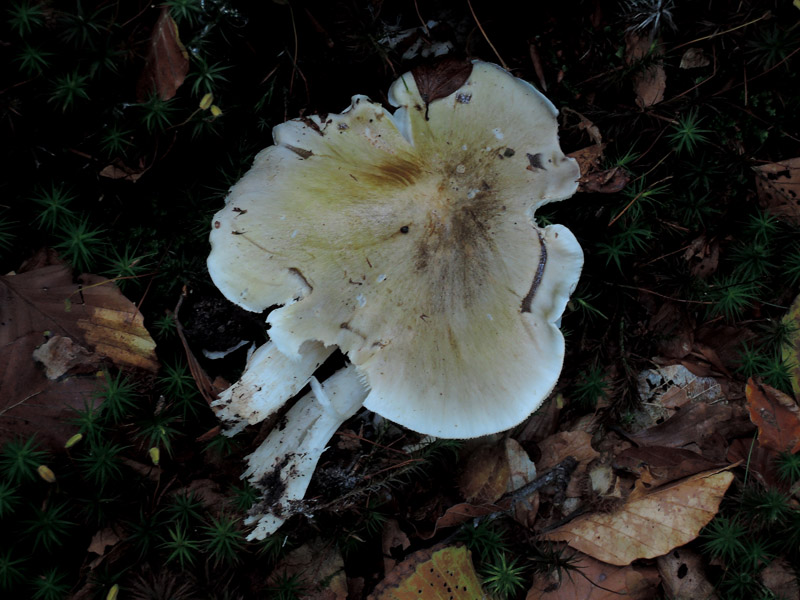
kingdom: Fungi
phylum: Basidiomycota
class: Agaricomycetes
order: Agaricales
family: Tricholomataceae
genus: Tricholoma
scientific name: Tricholoma umbonatum
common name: puklet ridderhat
